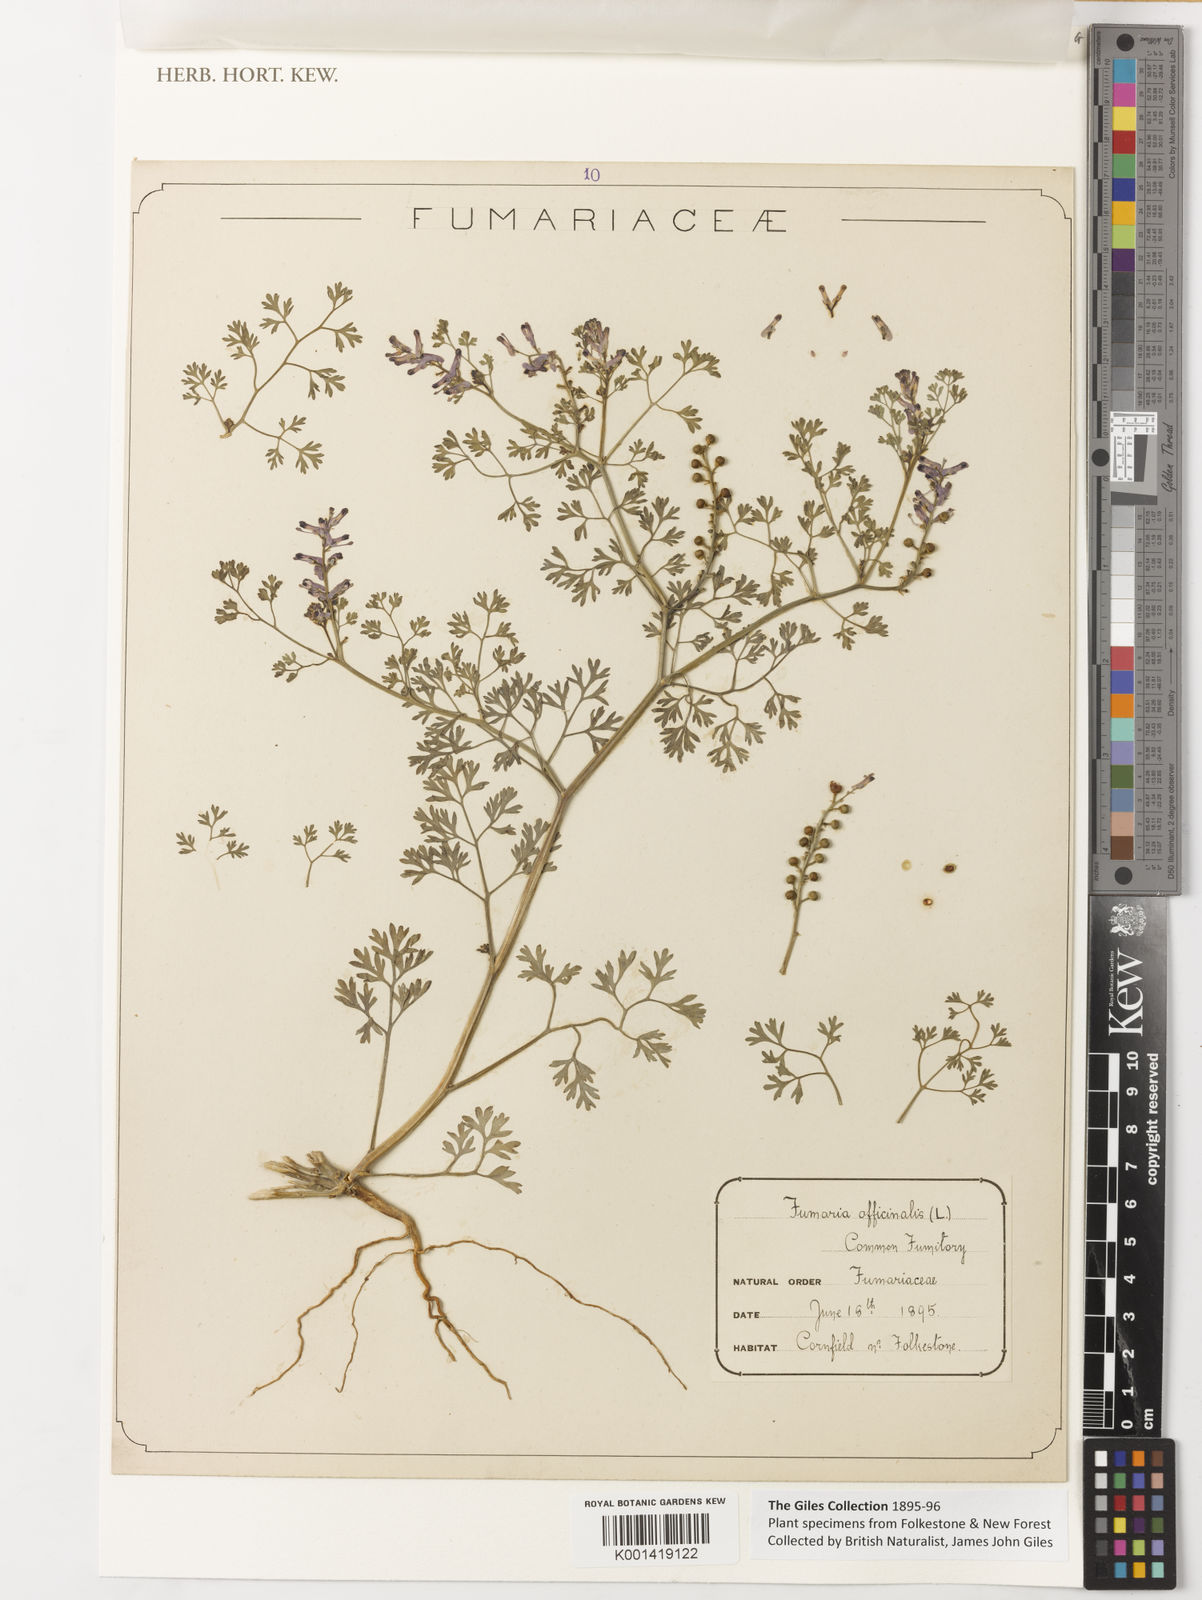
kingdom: Plantae
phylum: Tracheophyta
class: Magnoliopsida
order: Ranunculales
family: Papaveraceae
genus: Fumaria
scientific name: Fumaria officinalis
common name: Common fumitory
